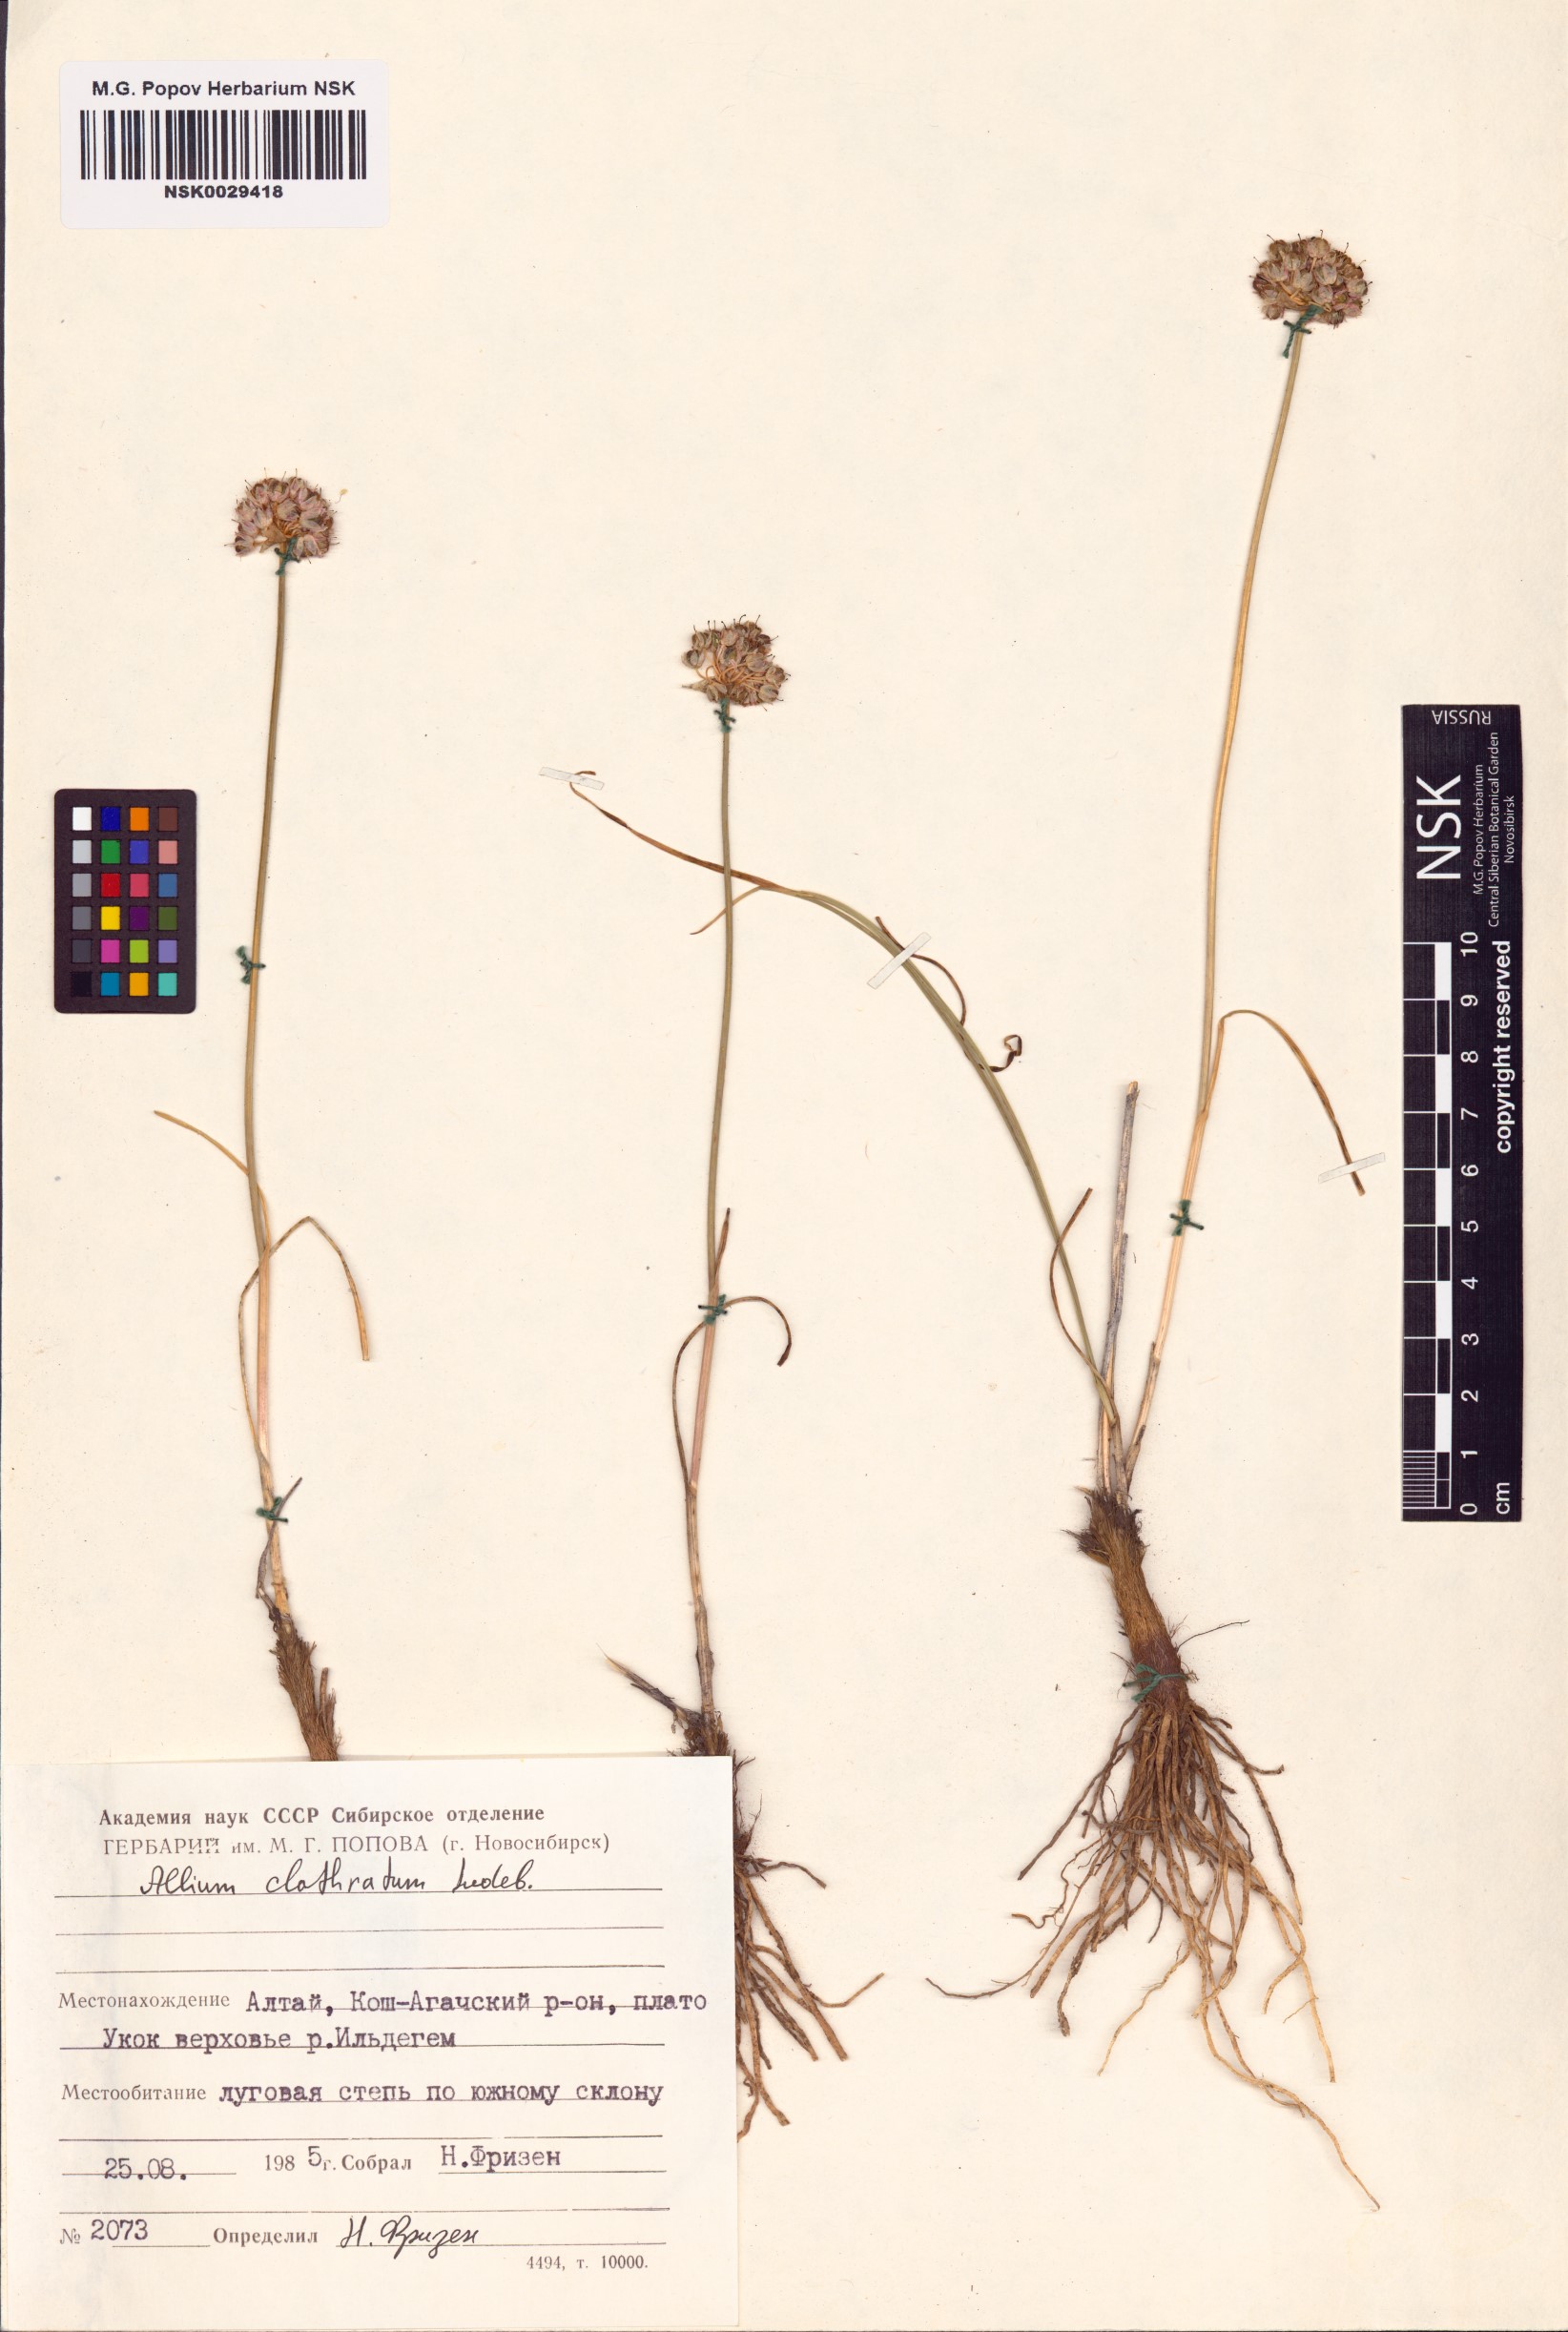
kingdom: Plantae
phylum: Tracheophyta
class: Liliopsida
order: Asparagales
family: Amaryllidaceae
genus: Allium
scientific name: Allium clathratum
